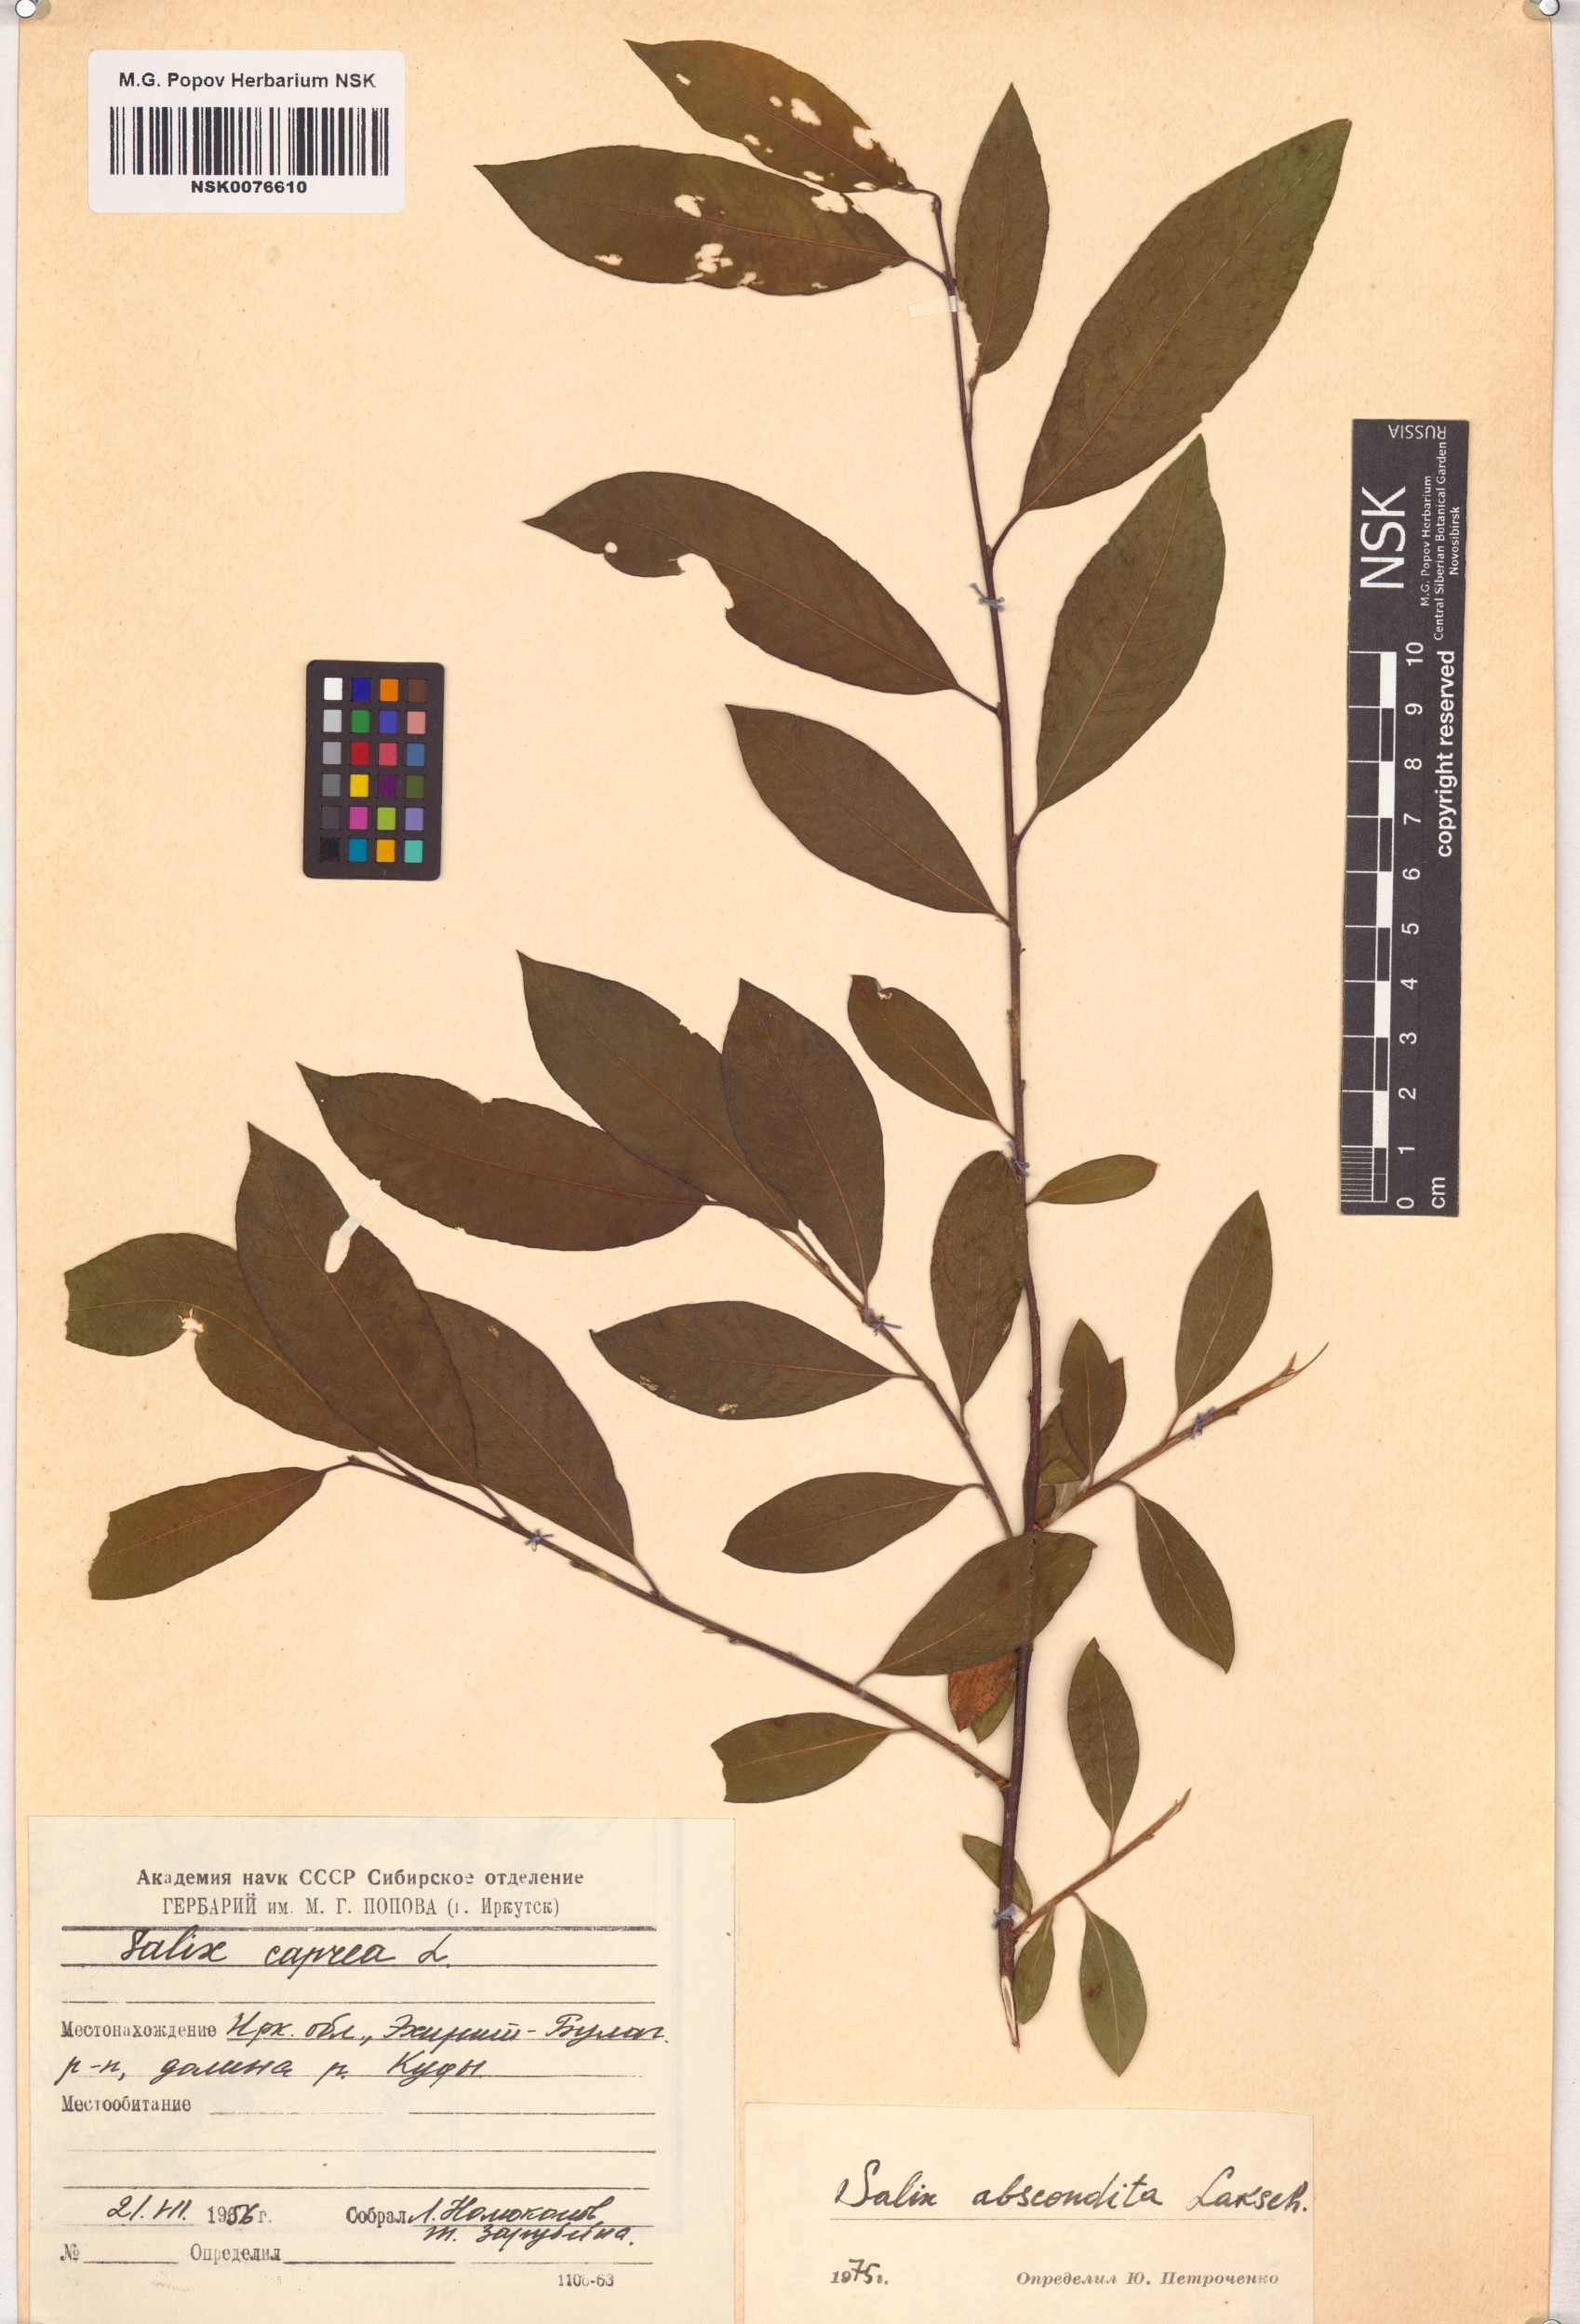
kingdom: Plantae
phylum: Tracheophyta
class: Magnoliopsida
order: Malpighiales
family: Salicaceae
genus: Salix
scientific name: Salix abscondita
